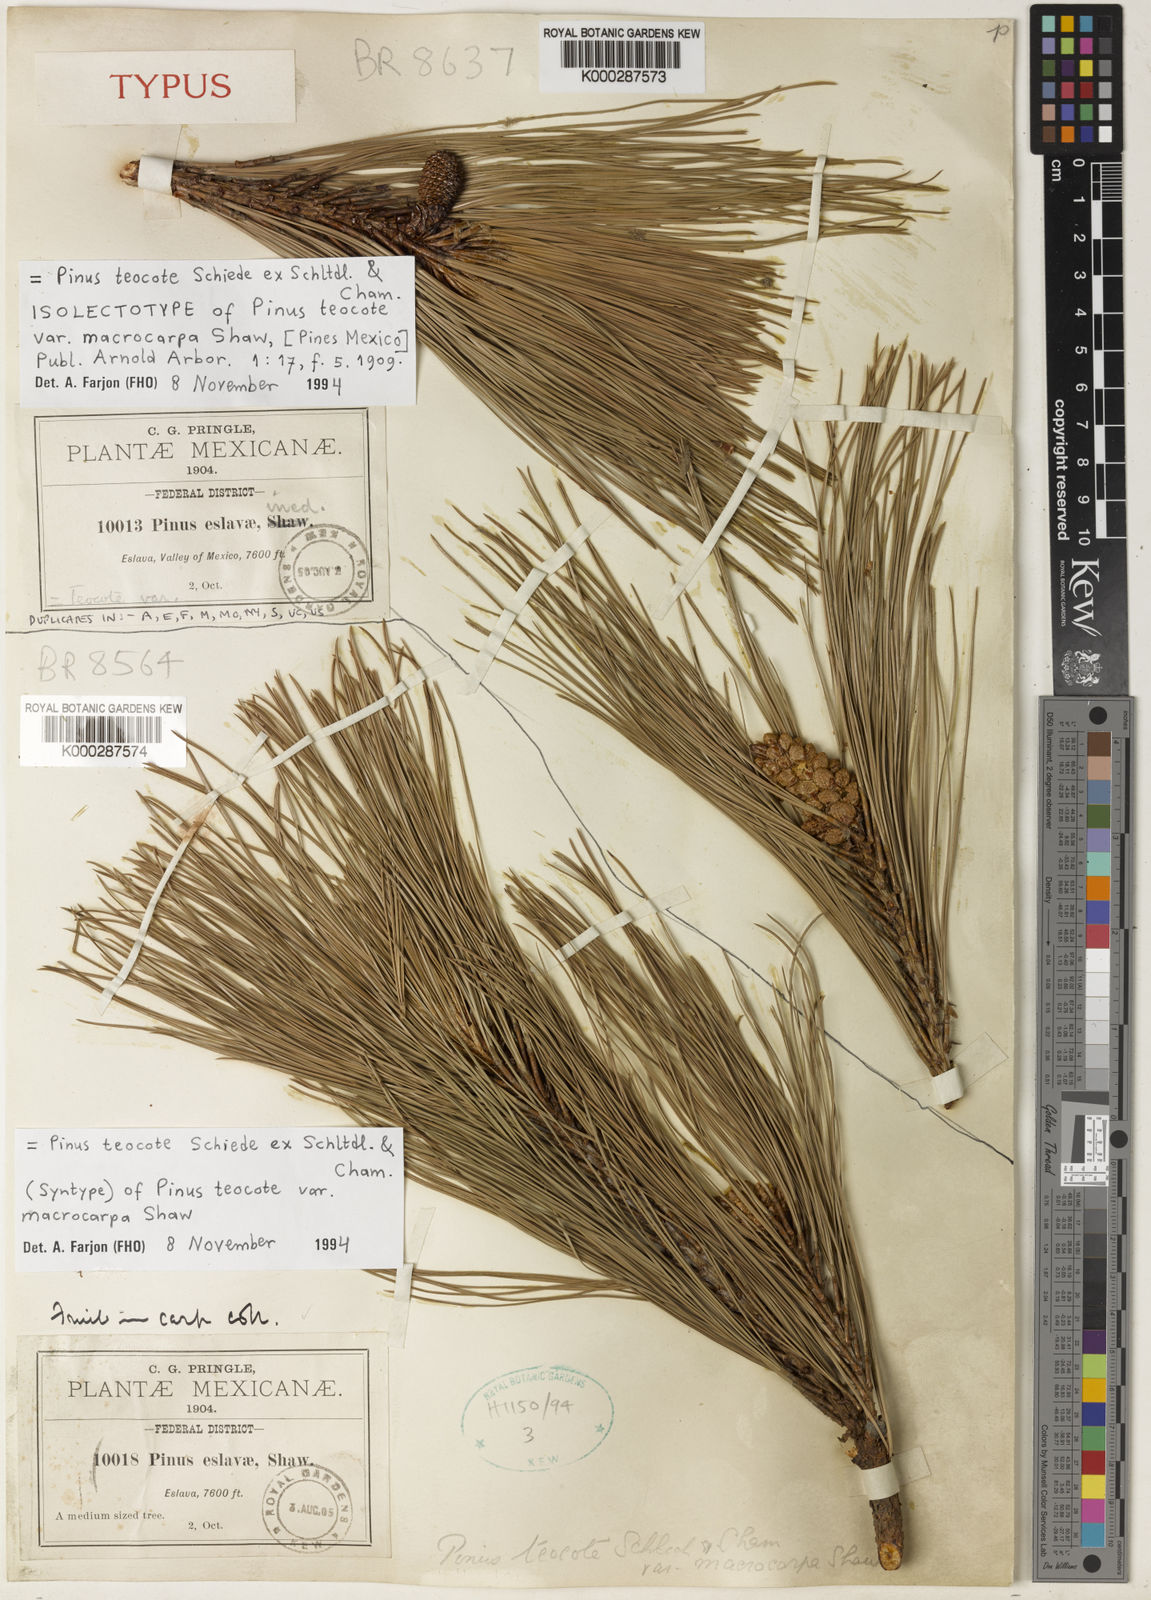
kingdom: Plantae
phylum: Tracheophyta
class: Pinopsida
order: Pinales
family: Pinaceae
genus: Pinus
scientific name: Pinus teocote
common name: Aztec pine
